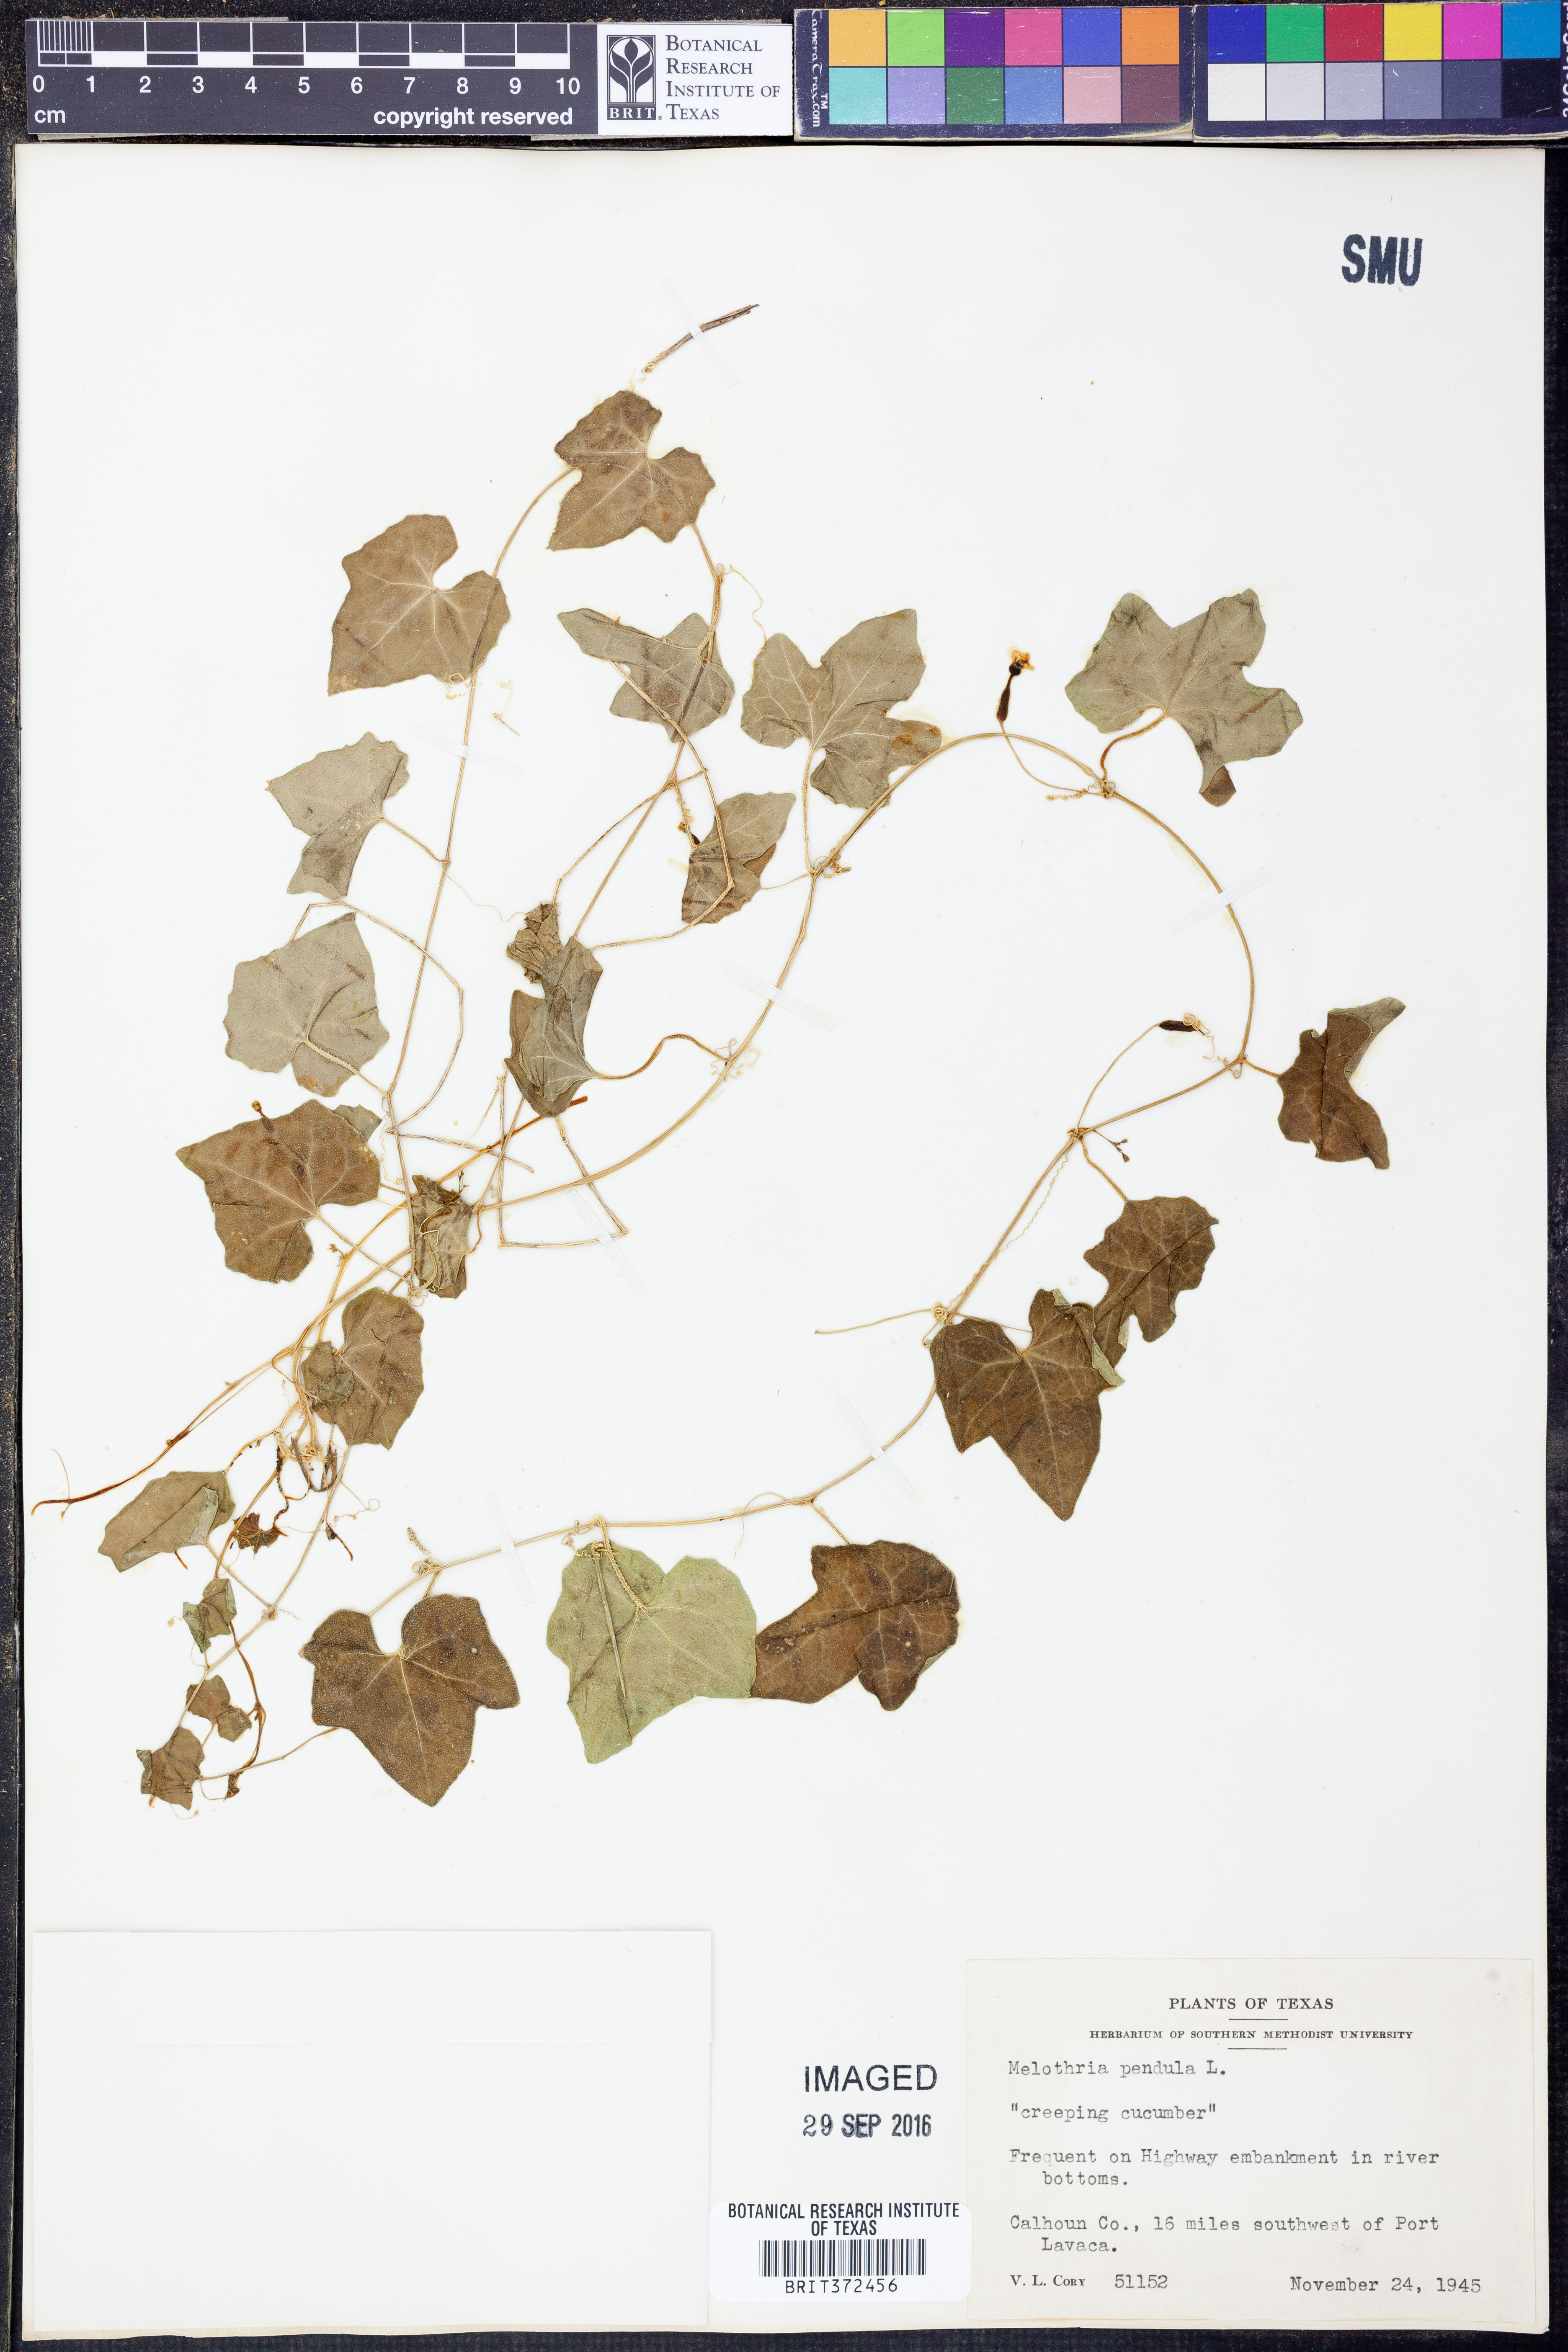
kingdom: Plantae
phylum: Tracheophyta
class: Magnoliopsida
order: Cucurbitales
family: Cucurbitaceae
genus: Melothria
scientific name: Melothria pendula
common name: Creeping-cucumber
